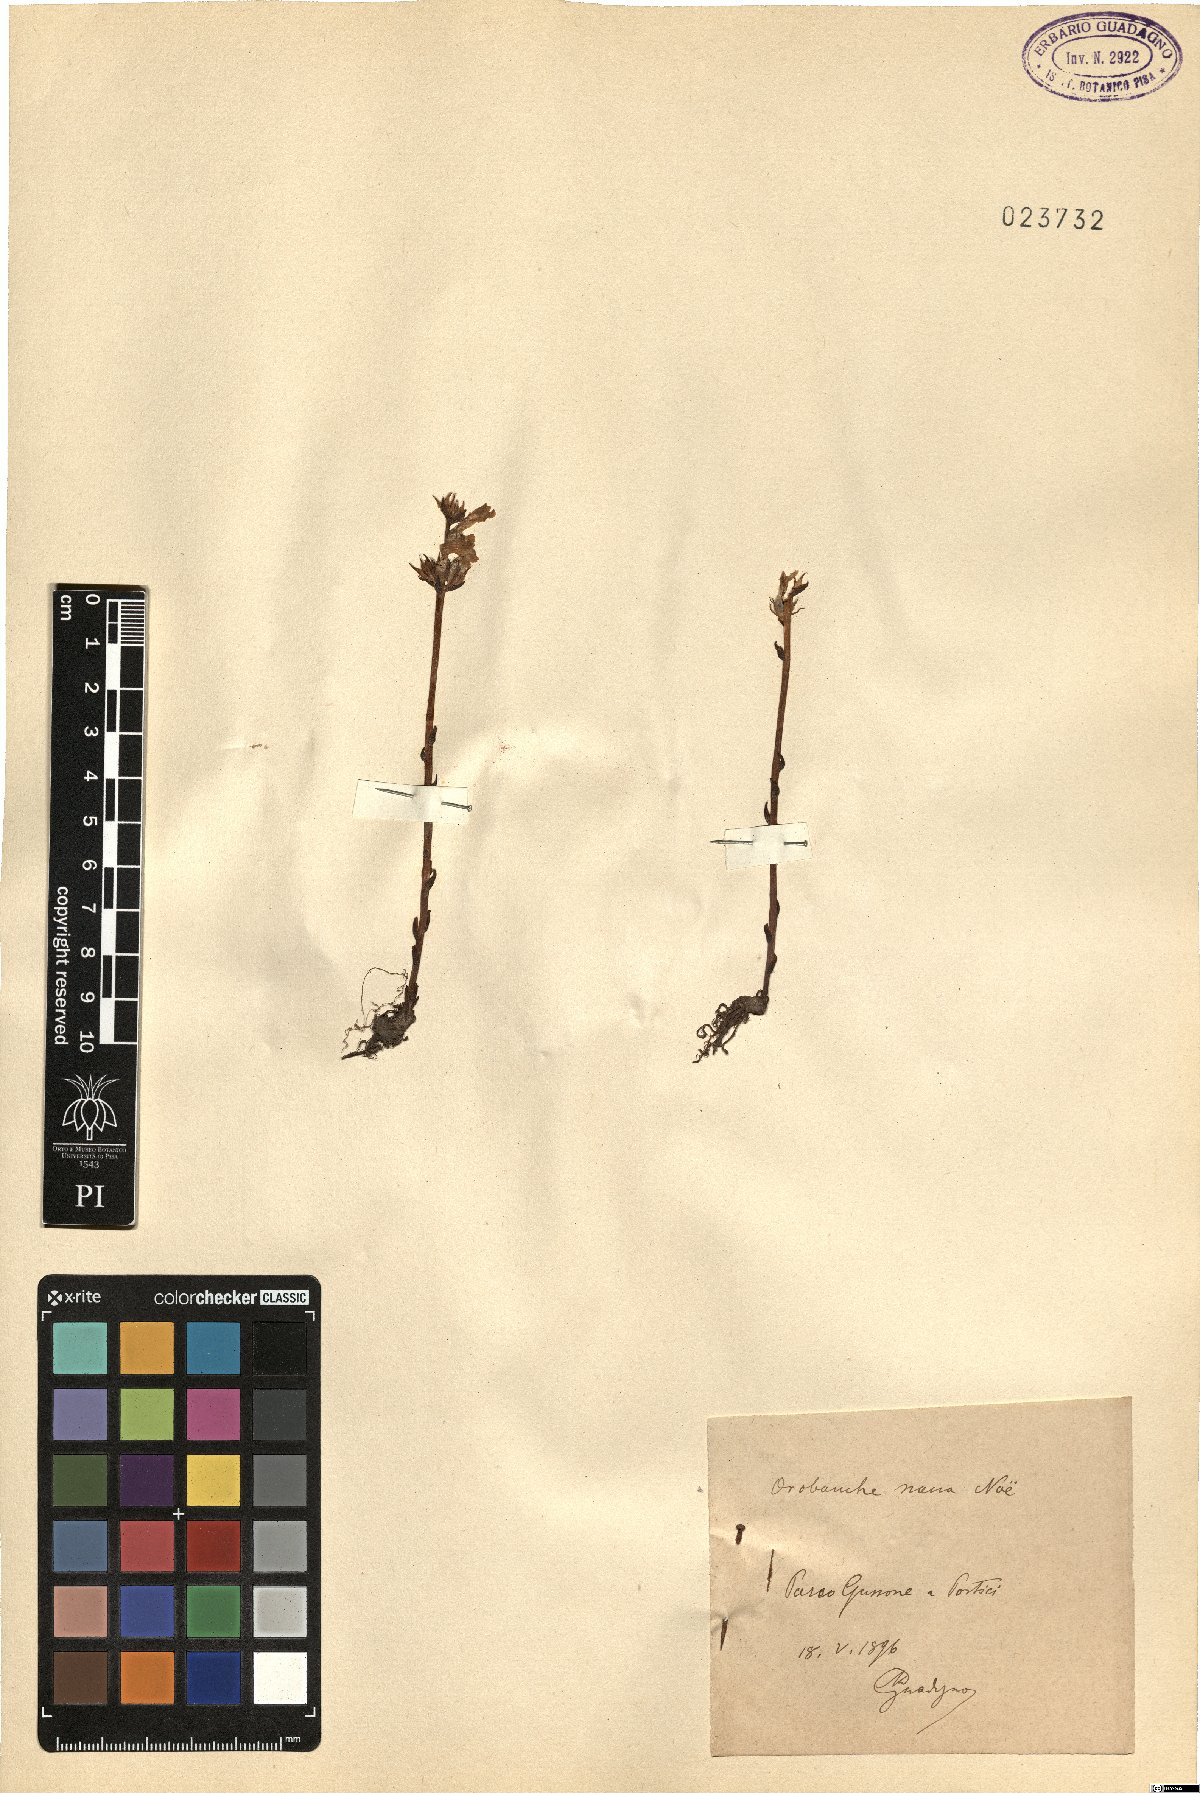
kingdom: Plantae
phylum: Tracheophyta
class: Magnoliopsida
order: Lamiales
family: Orobanchaceae
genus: Phelipanche
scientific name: Phelipanche mutelii
